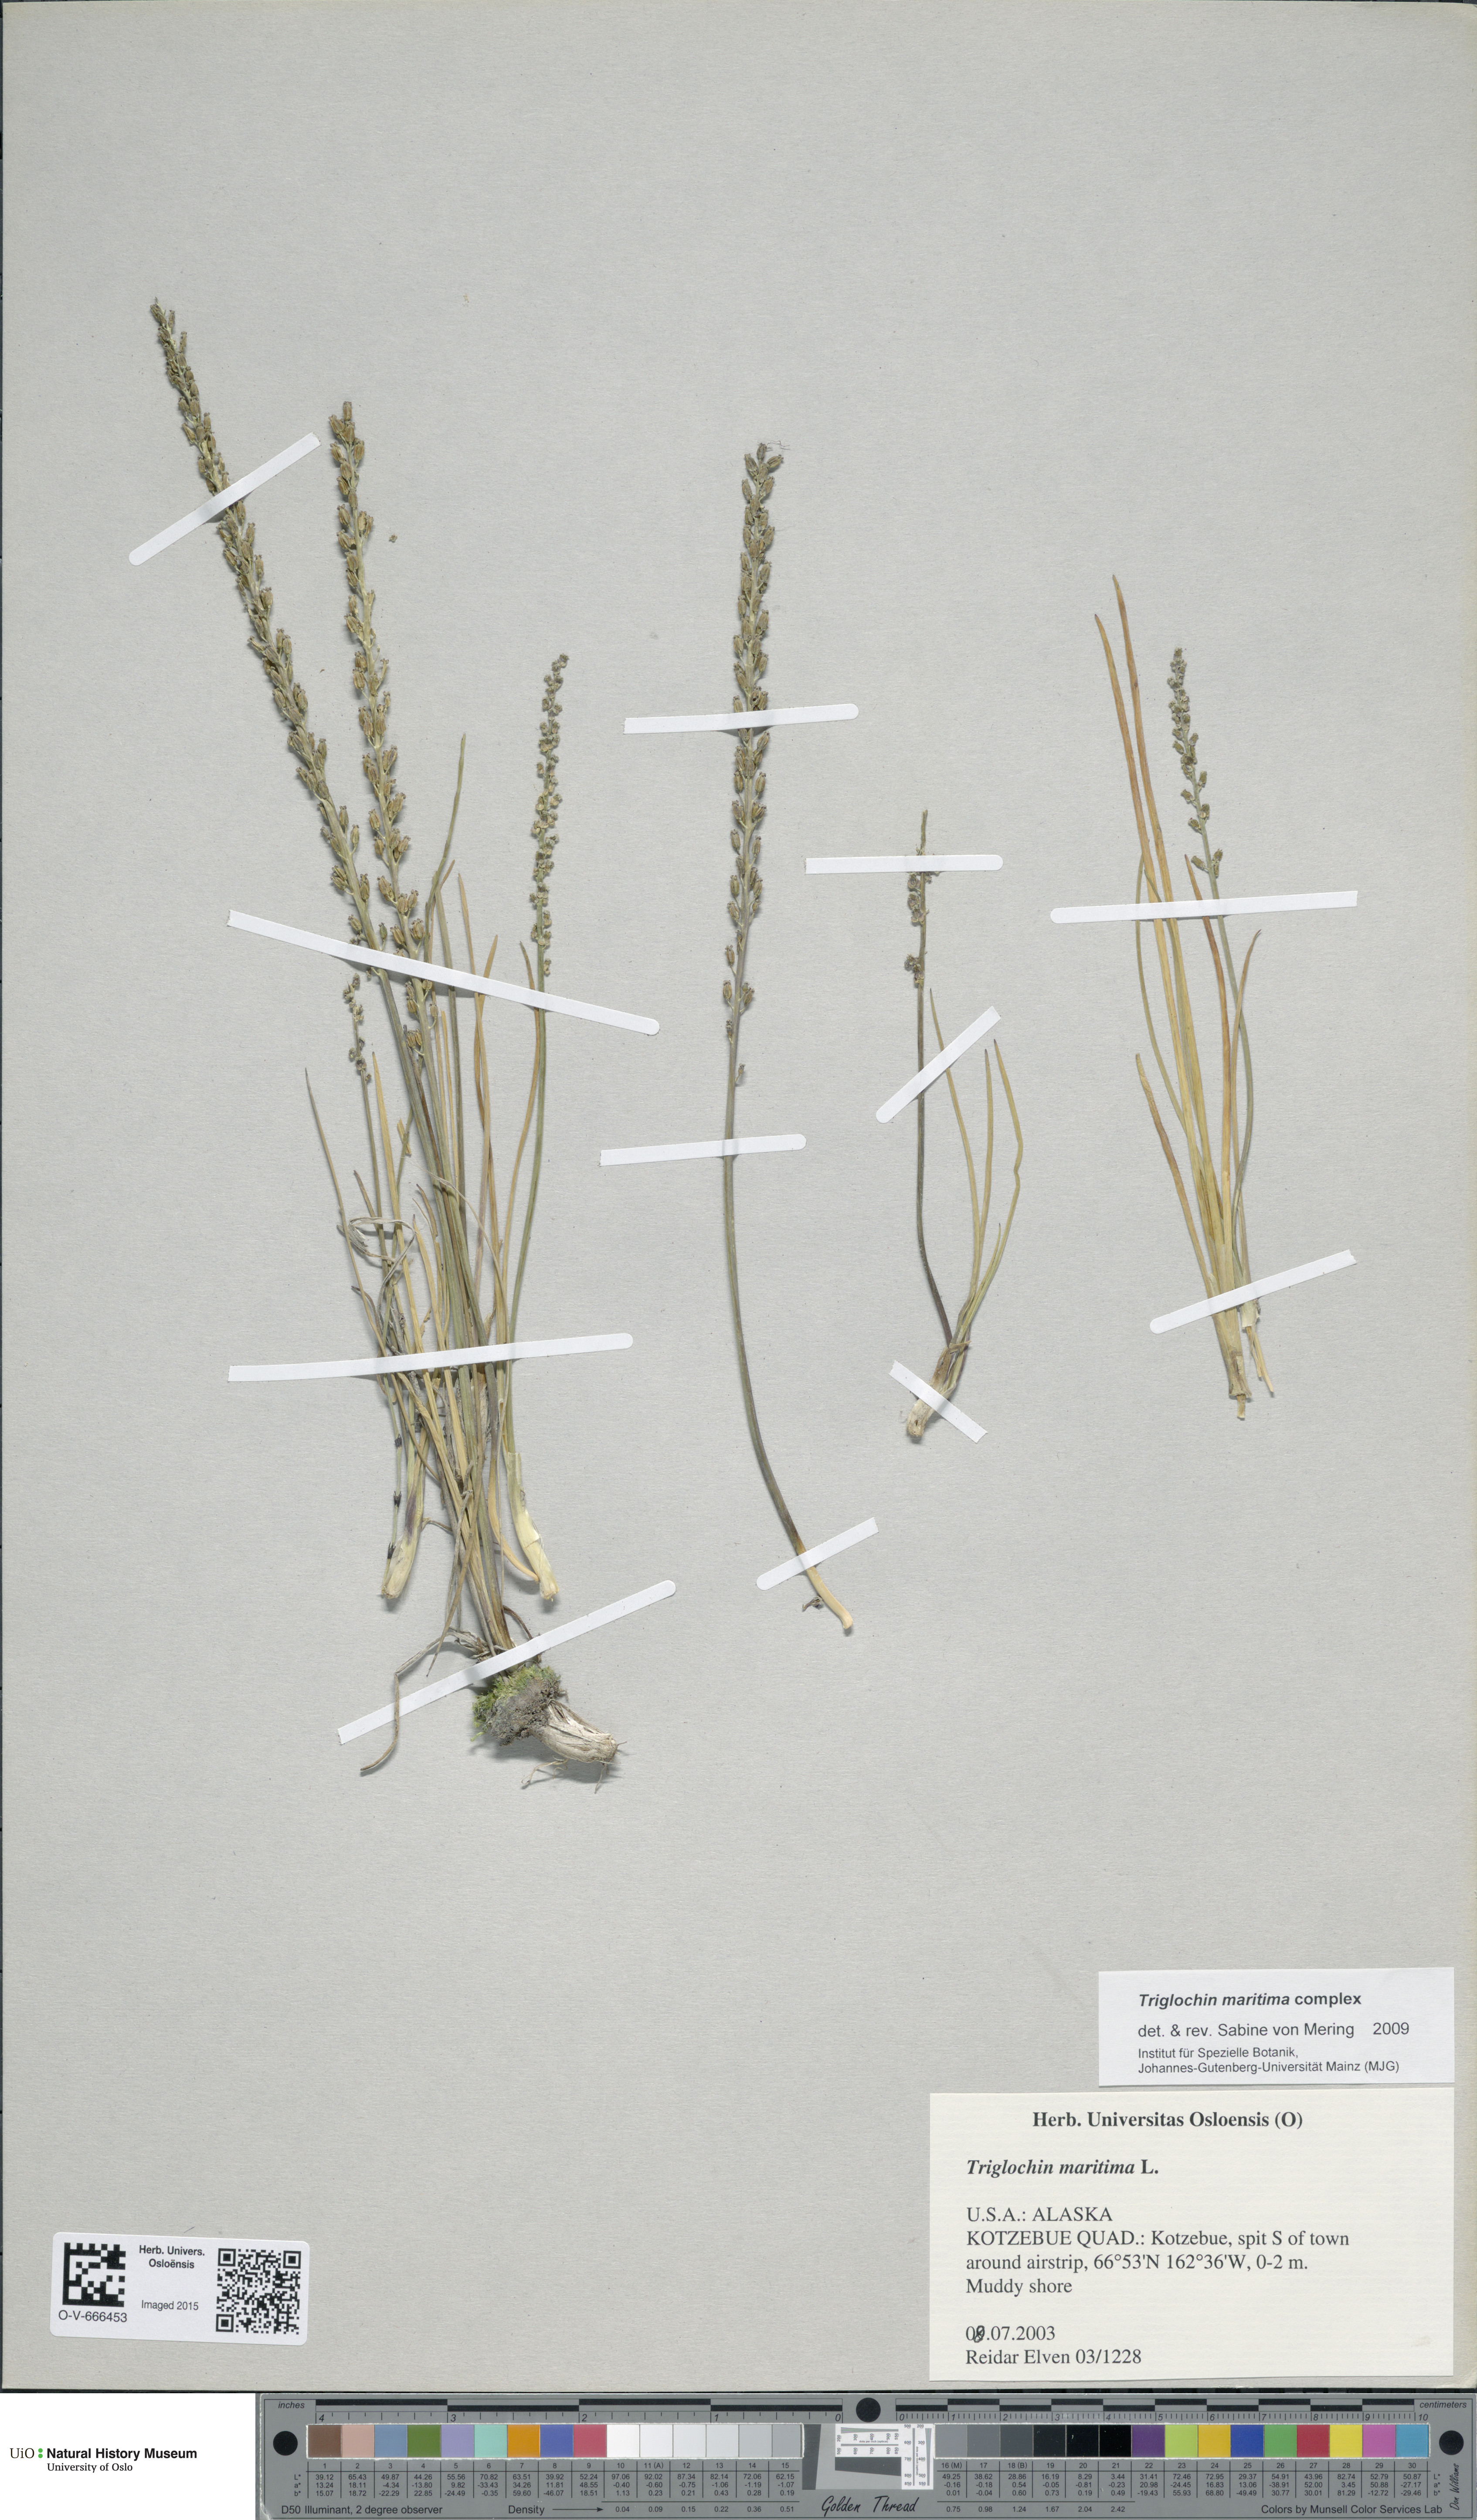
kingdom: Plantae
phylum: Tracheophyta
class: Liliopsida
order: Alismatales
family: Juncaginaceae
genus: Triglochin
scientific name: Triglochin maritima
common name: Sea arrowgrass
